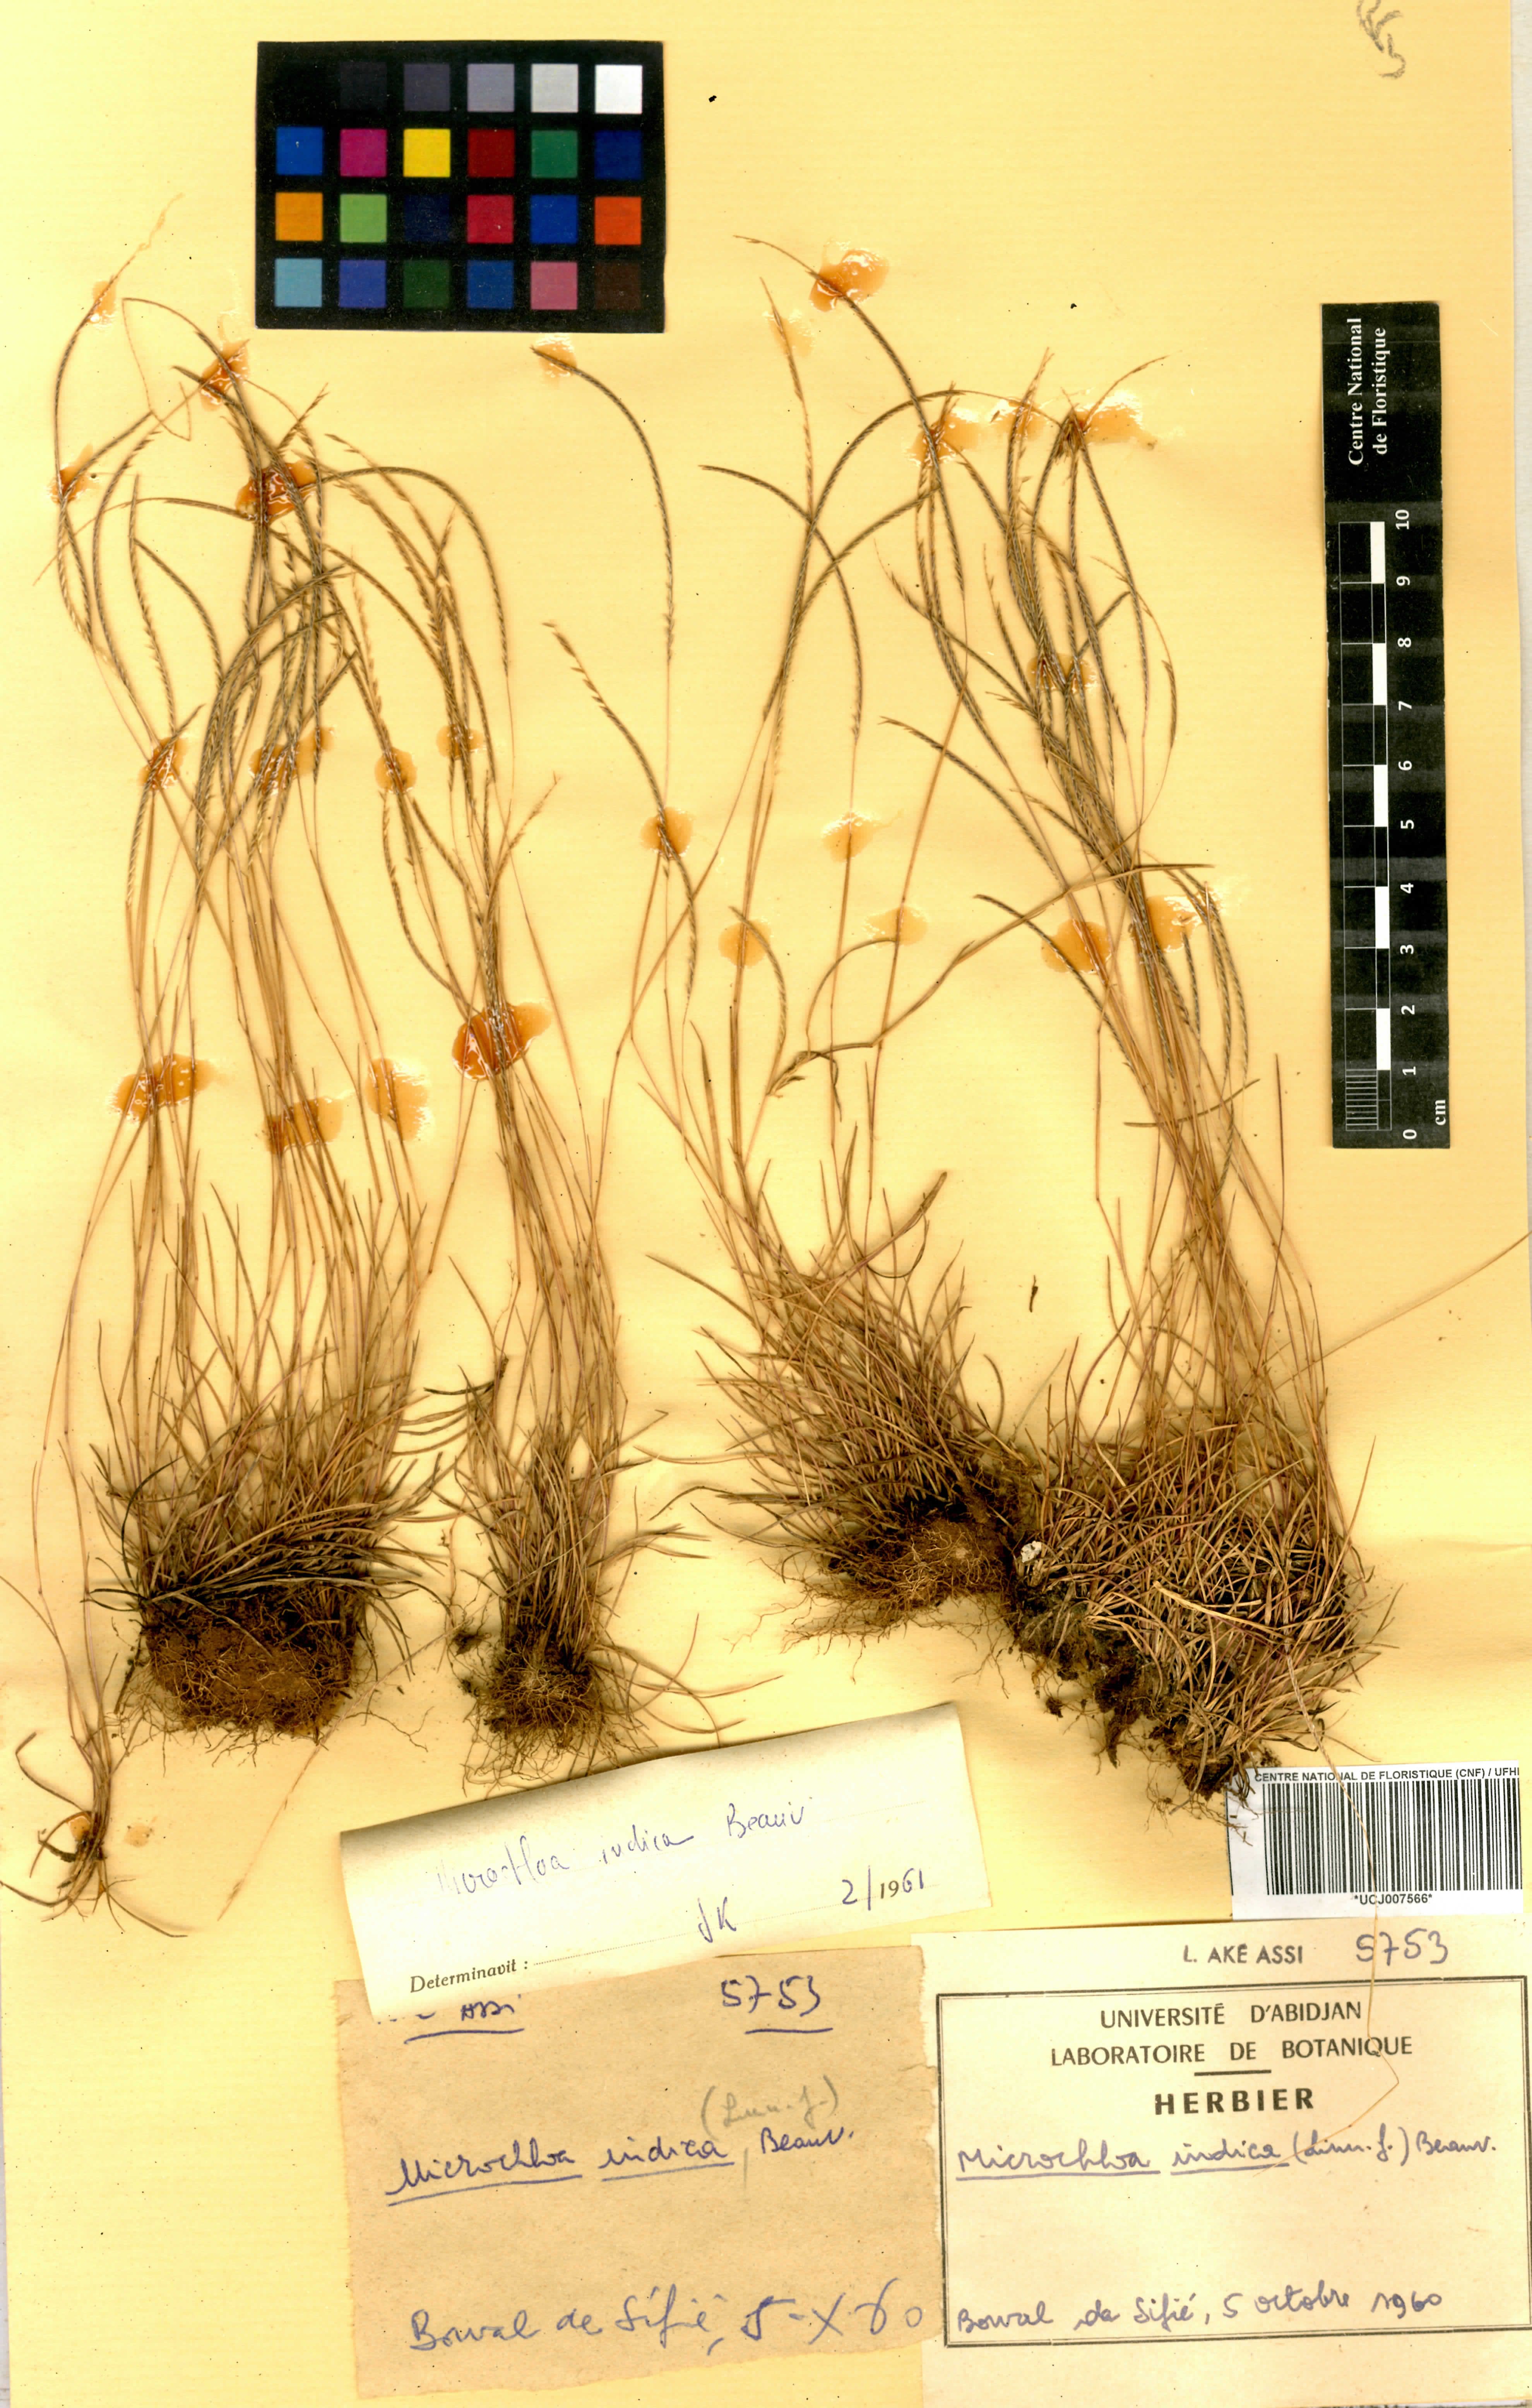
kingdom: Plantae
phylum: Tracheophyta
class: Liliopsida
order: Poales
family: Poaceae
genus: Microchloa
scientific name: Microchloa indica
